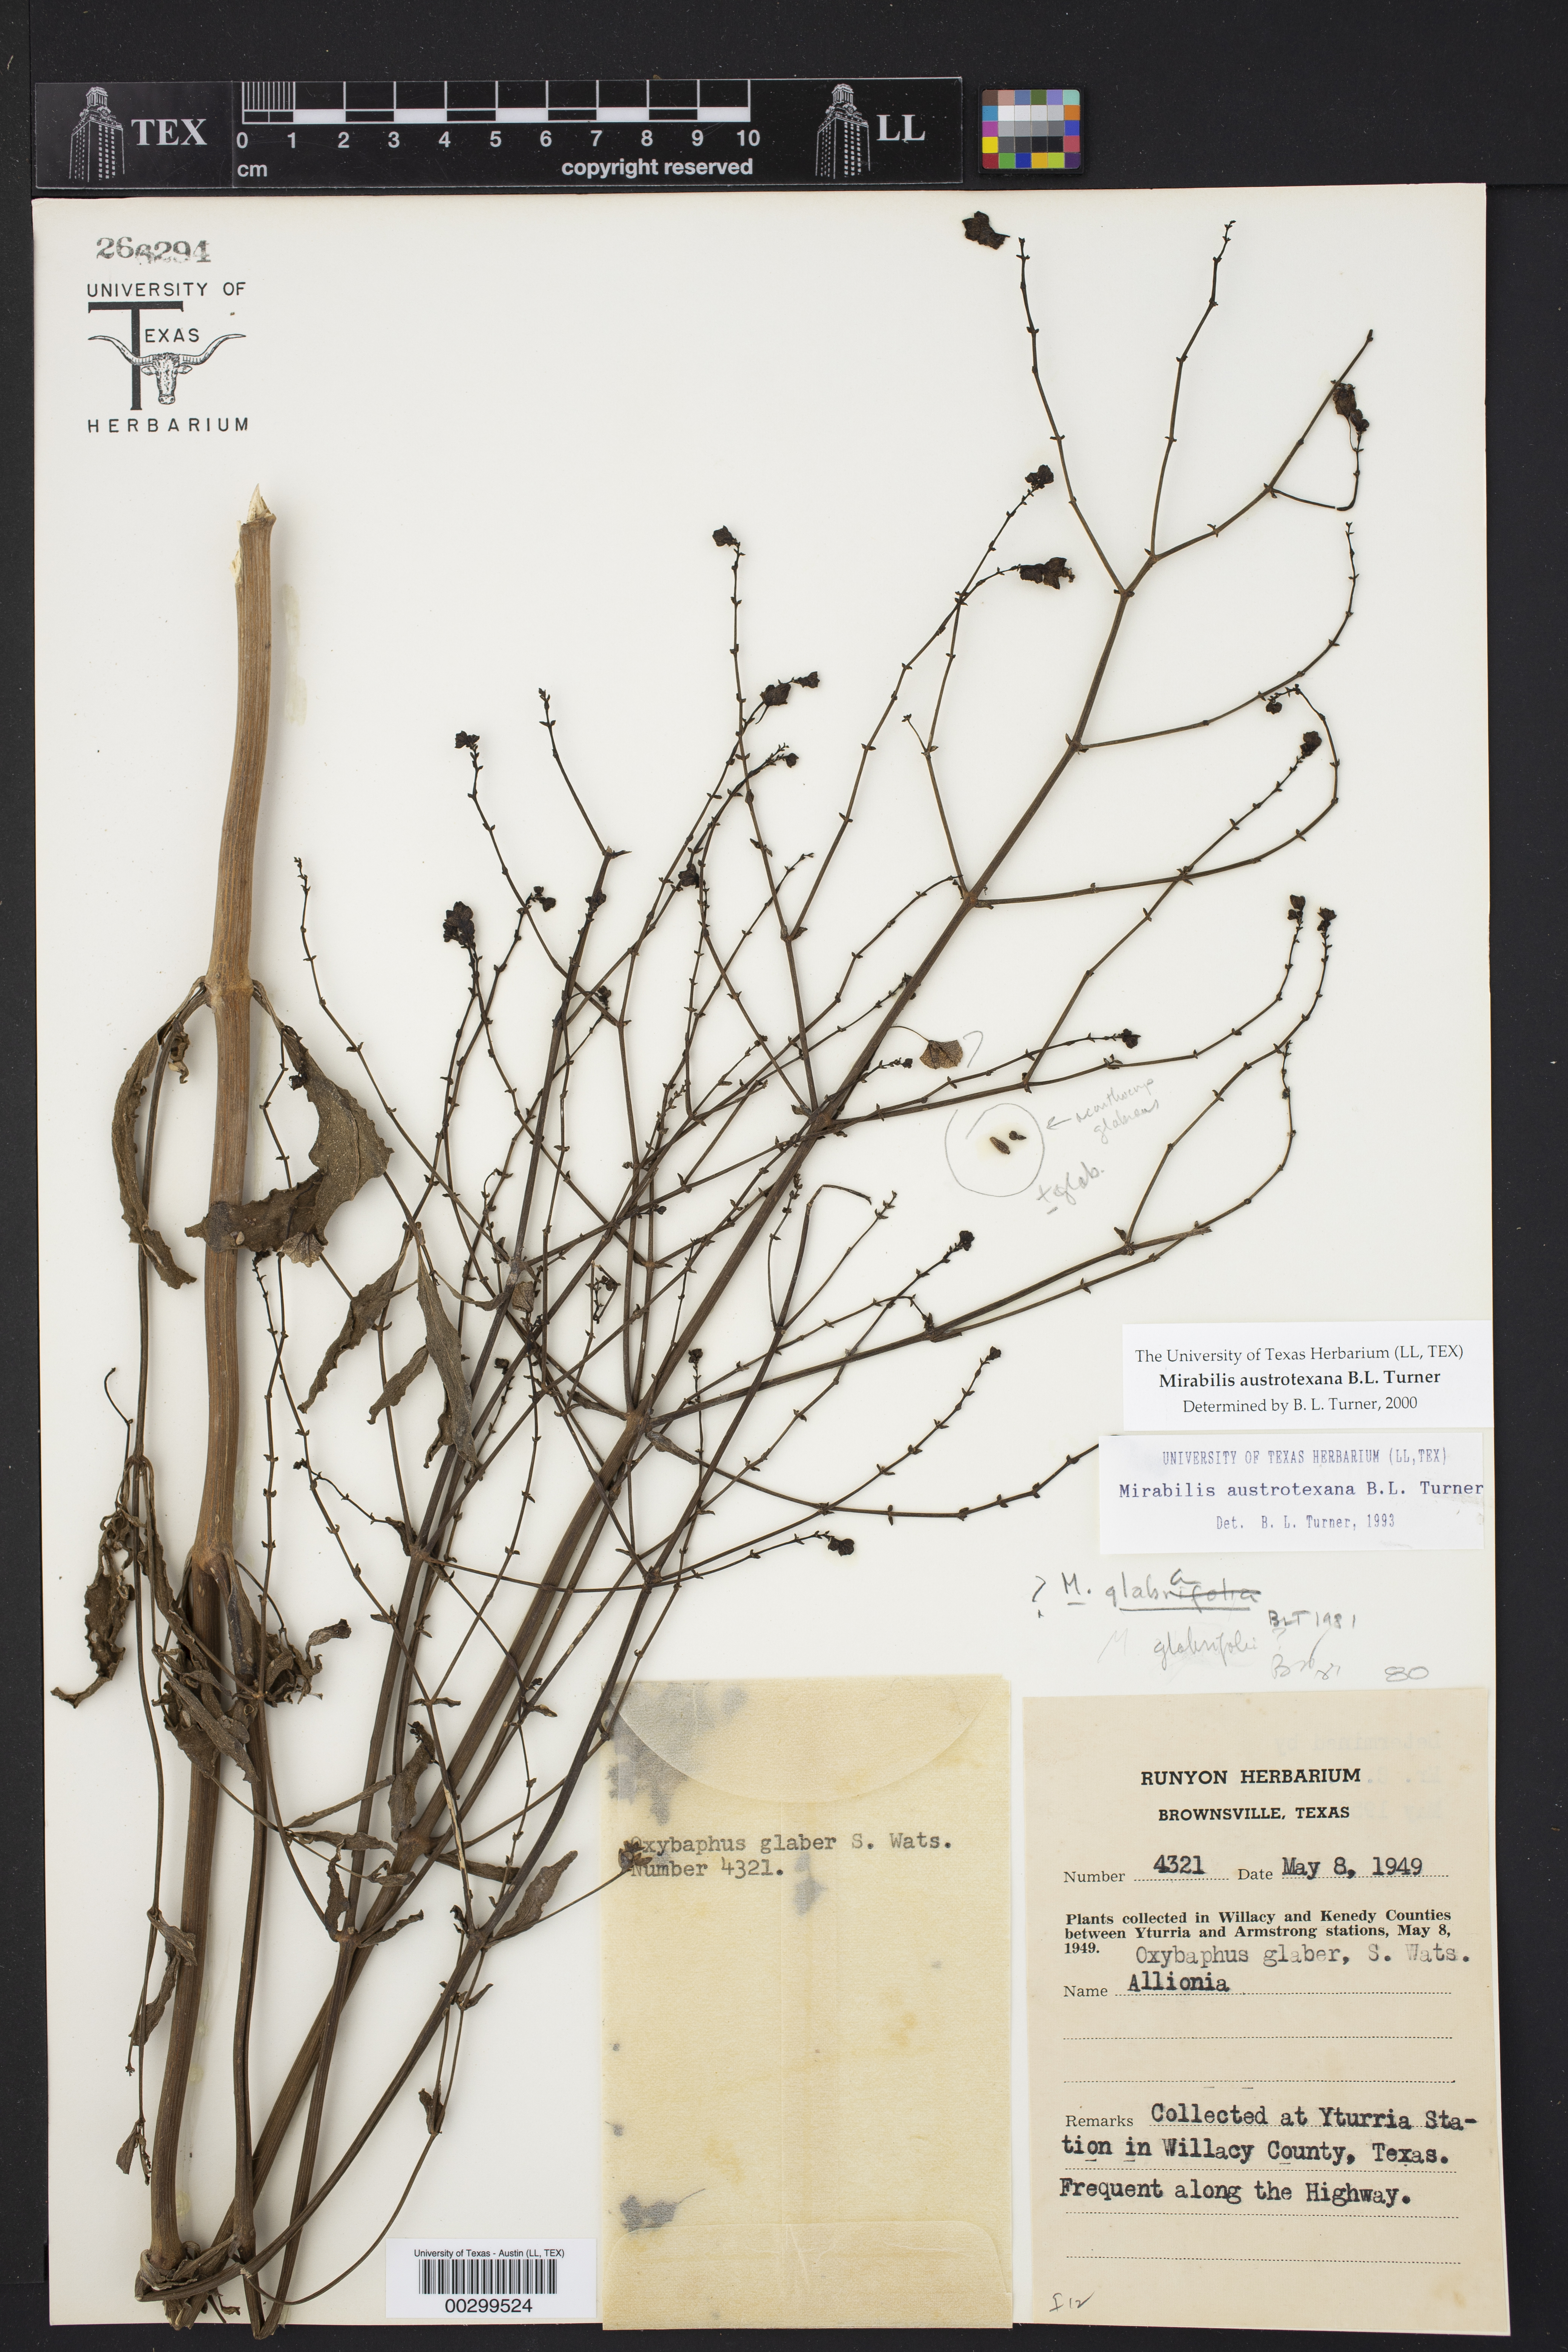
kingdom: Plantae
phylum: Tracheophyta
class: Magnoliopsida
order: Caryophyllales
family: Nyctaginaceae
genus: Mirabilis
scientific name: Mirabilis austrotexana
